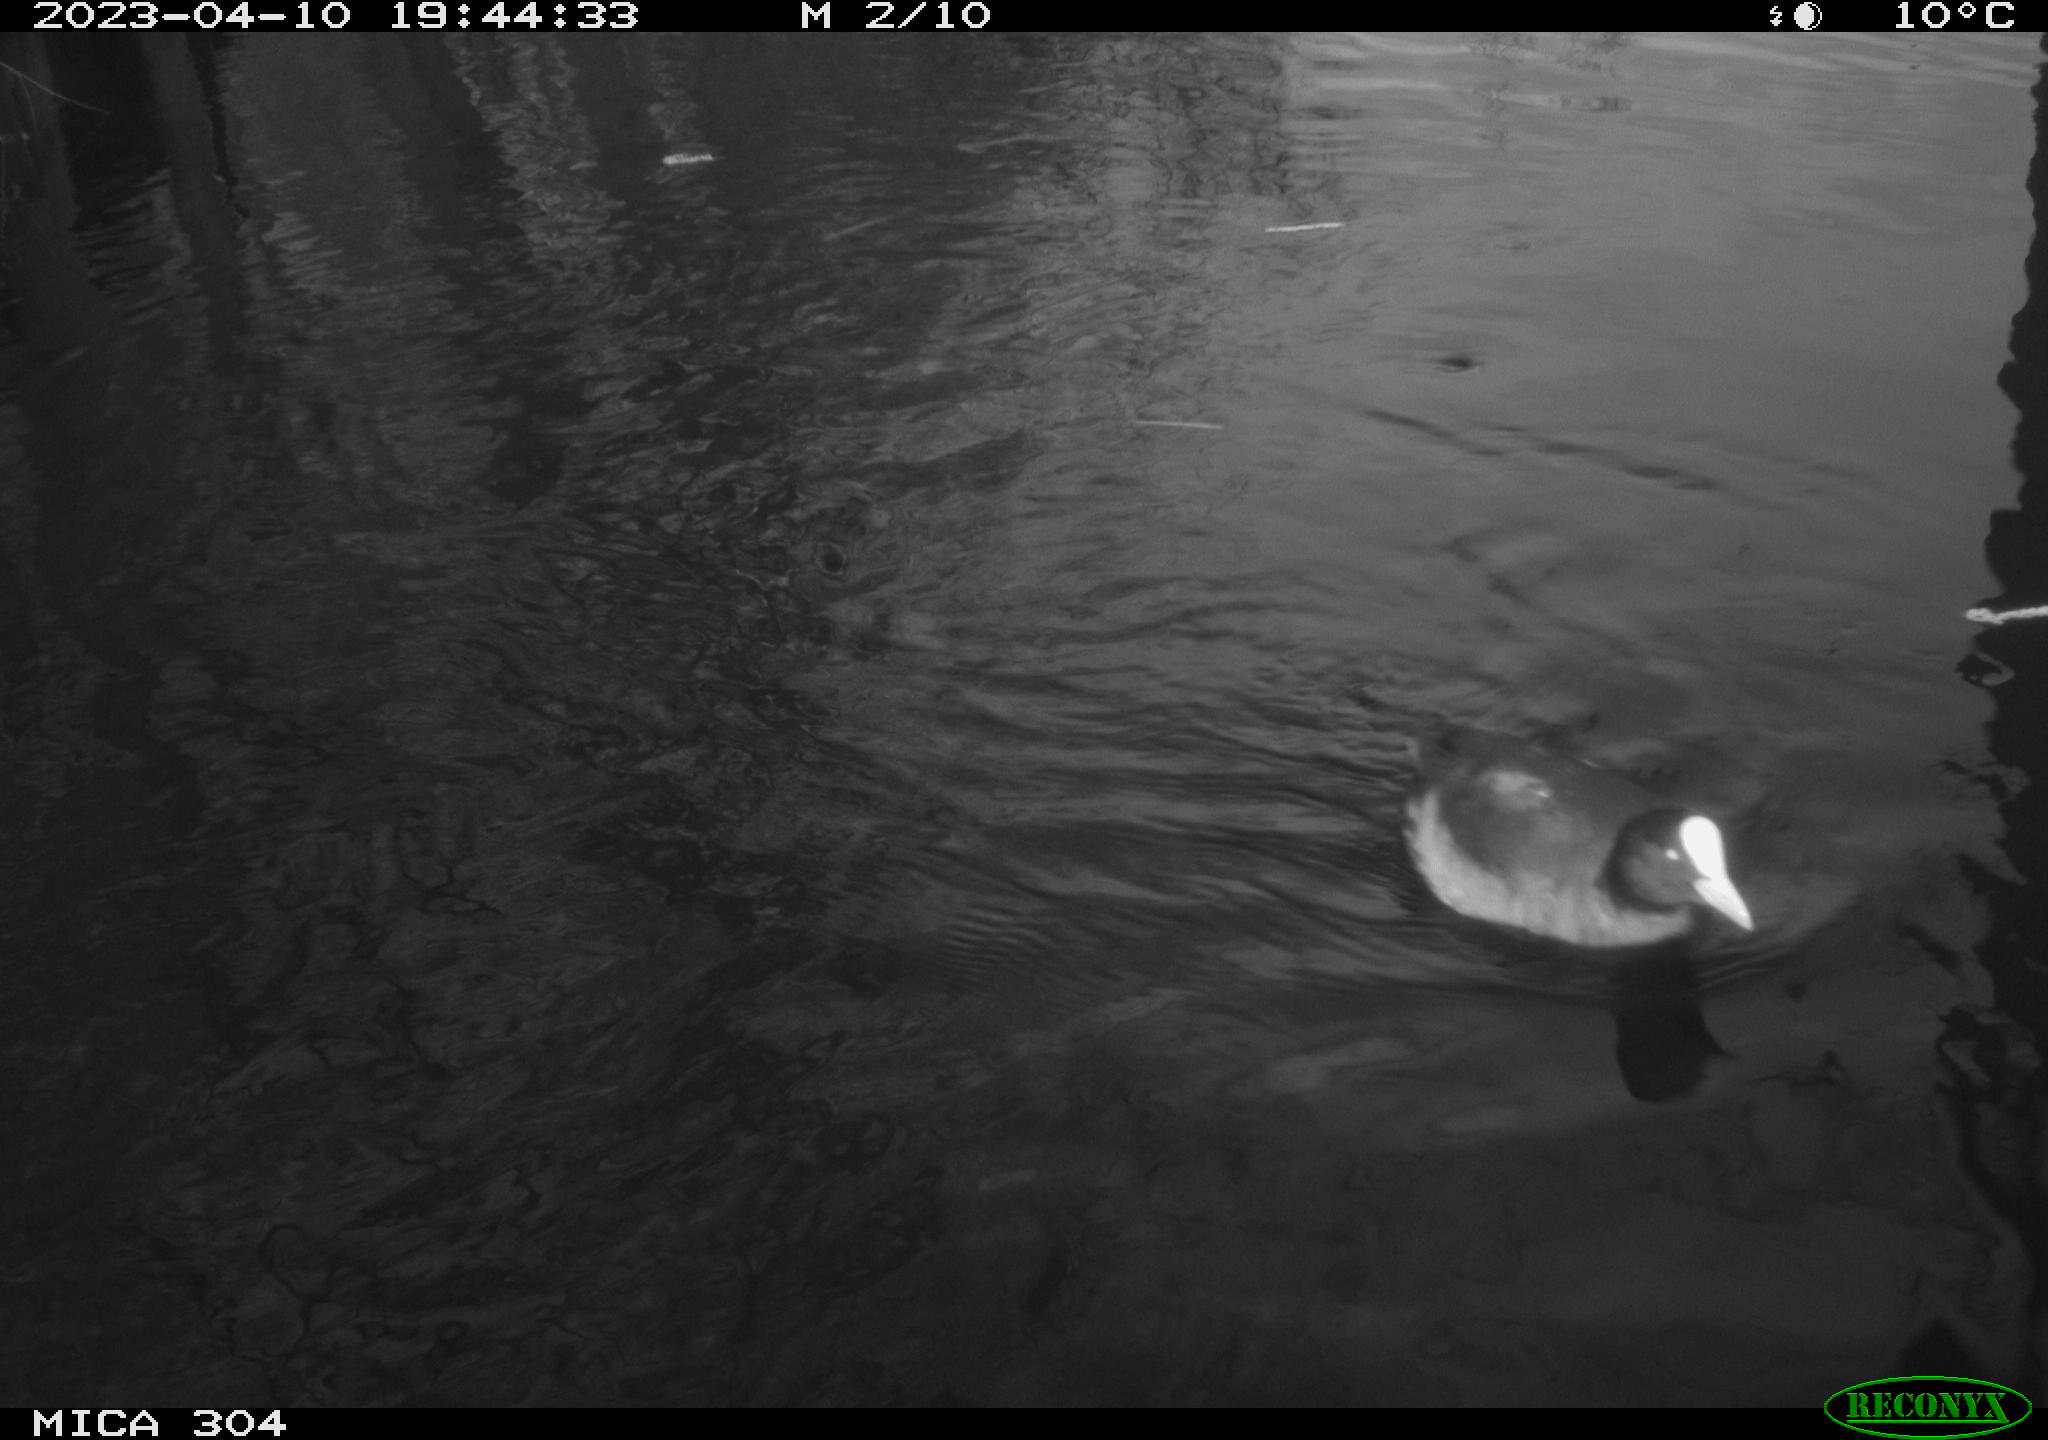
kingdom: Animalia
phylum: Chordata
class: Aves
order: Gruiformes
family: Rallidae
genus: Fulica
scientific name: Fulica atra
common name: Eurasian coot
